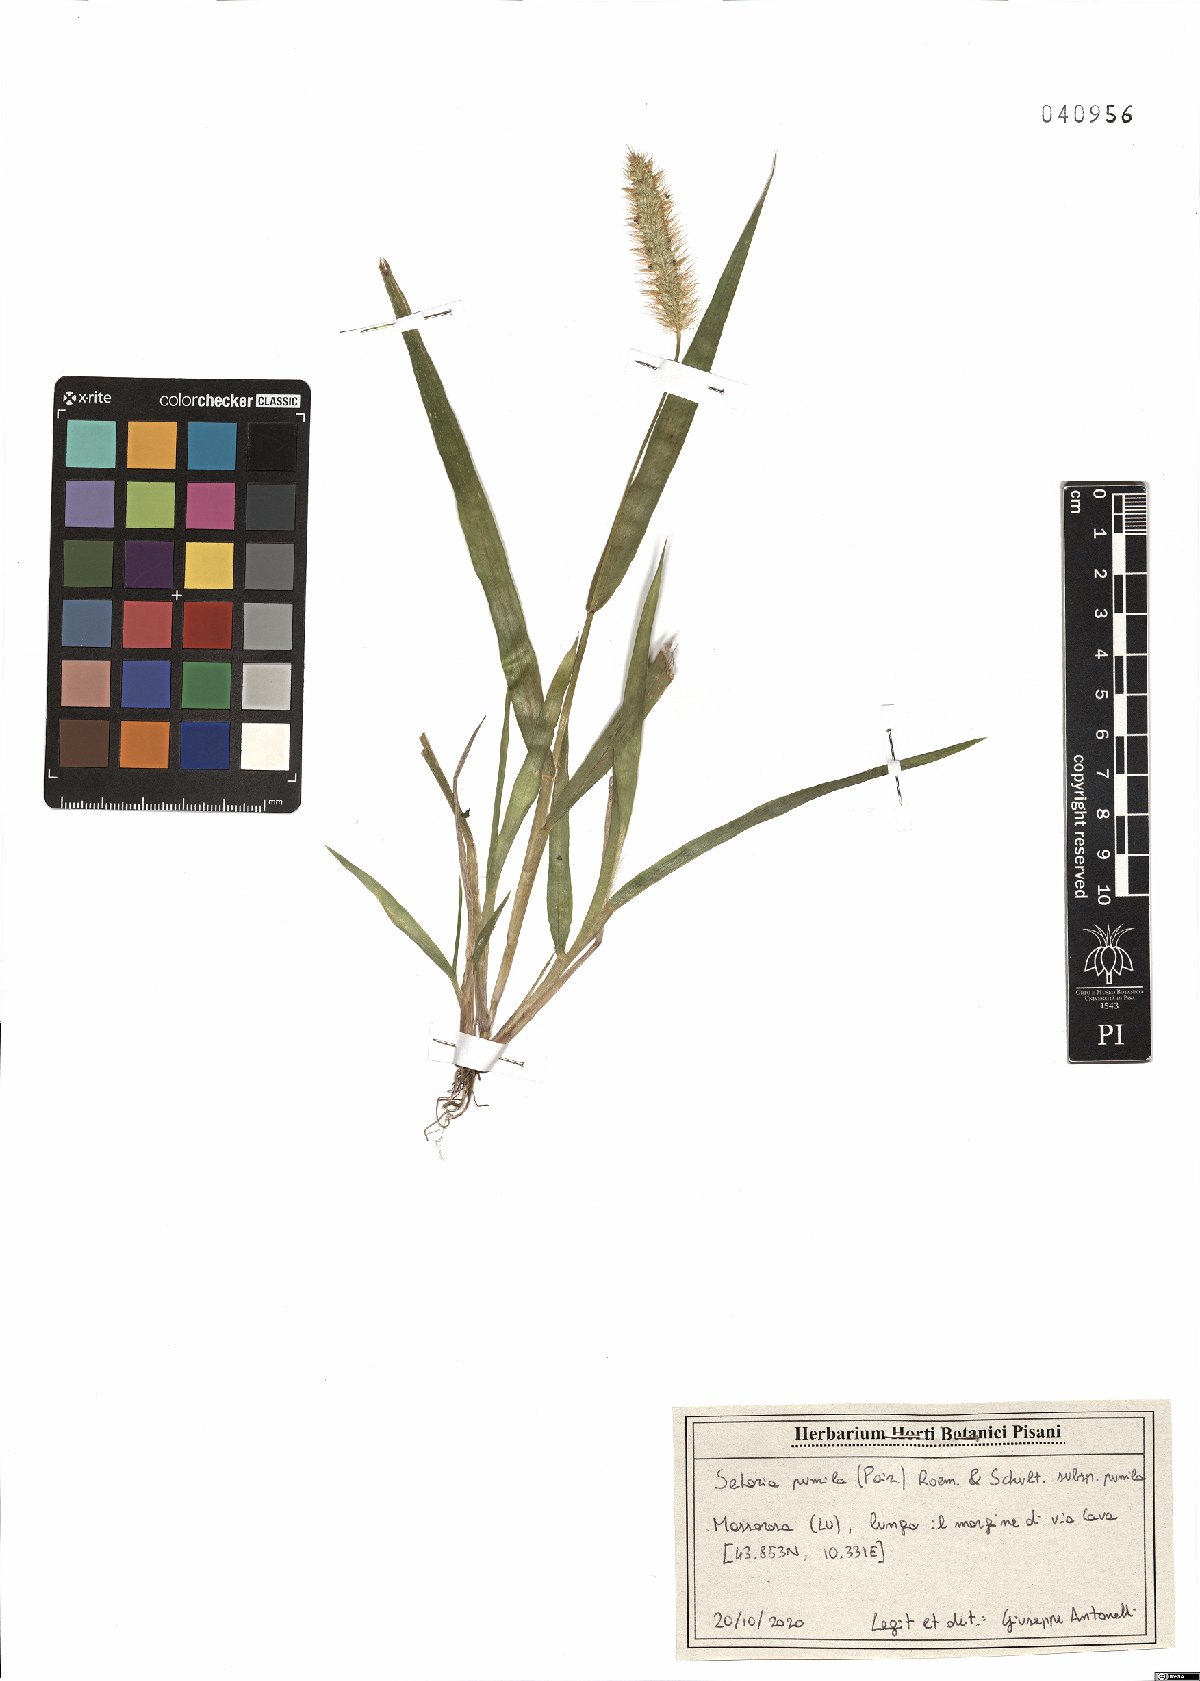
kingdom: Plantae
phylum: Tracheophyta
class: Liliopsida
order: Poales
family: Poaceae
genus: Setaria
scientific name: Setaria pumila
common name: Yellow bristle-grass
